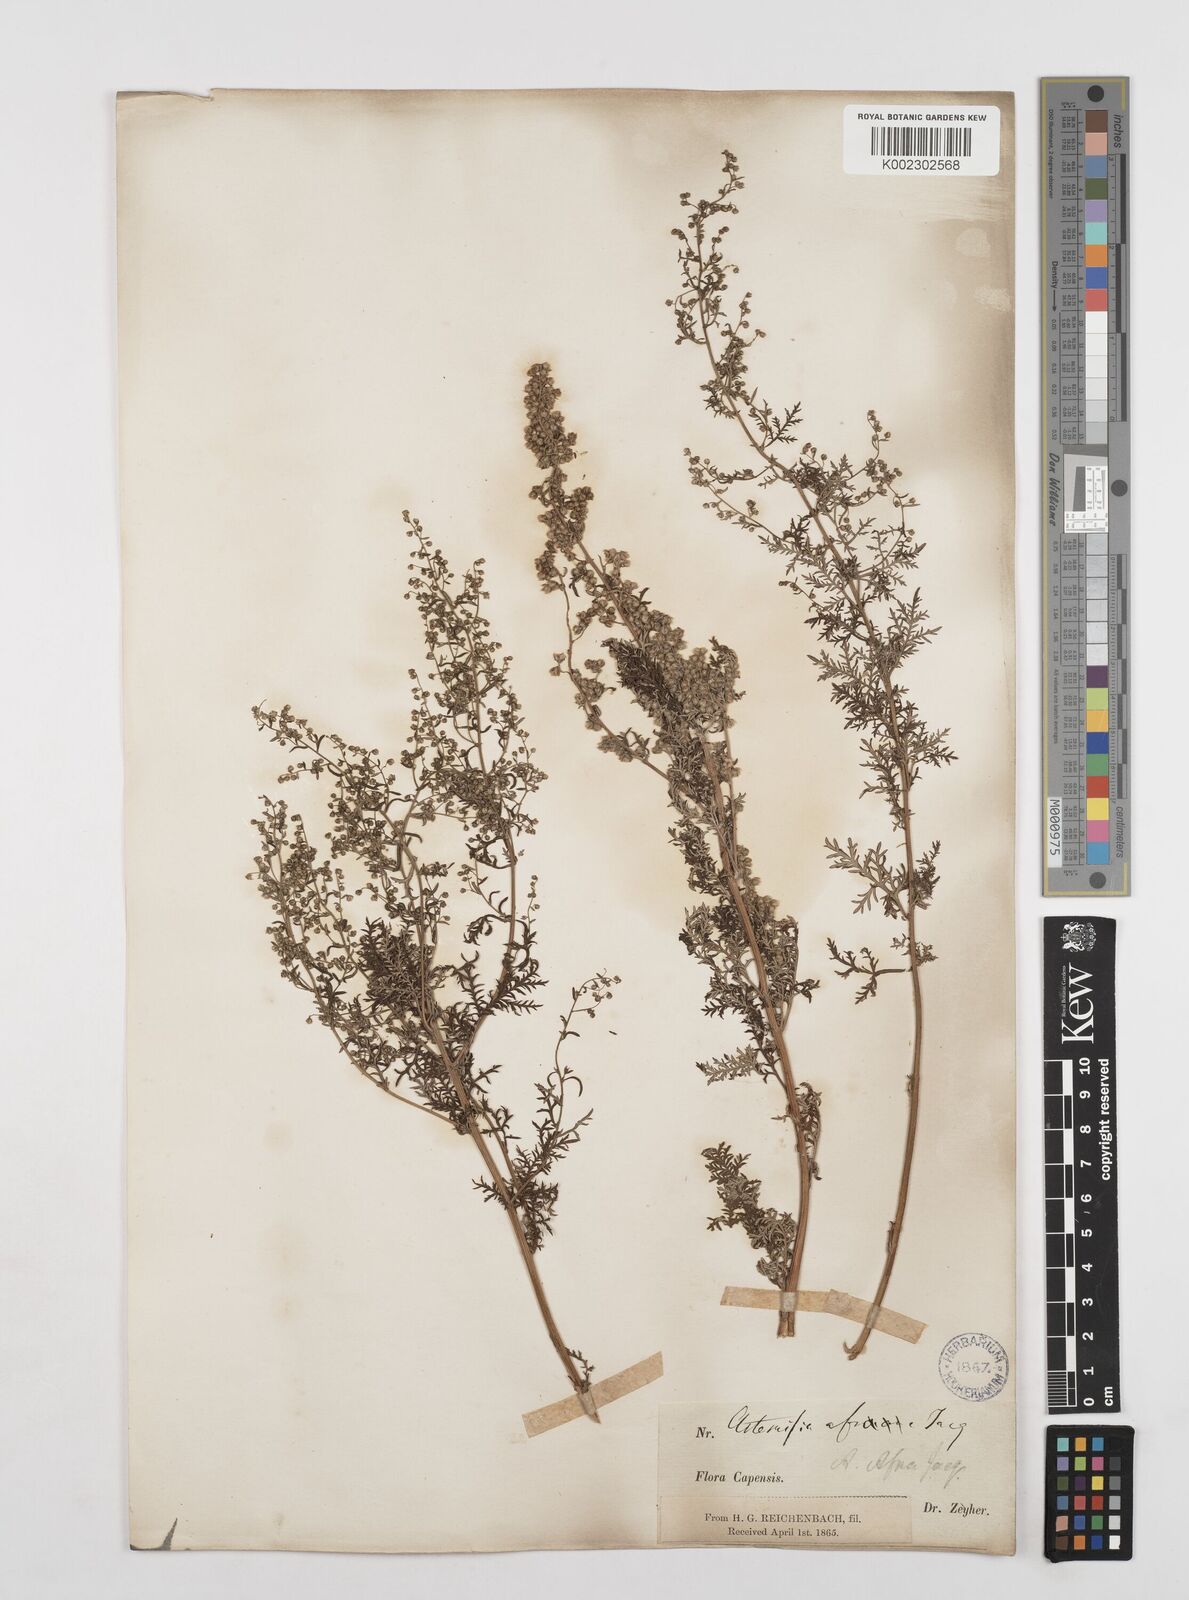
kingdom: Plantae
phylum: Tracheophyta
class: Magnoliopsida
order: Asterales
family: Asteraceae
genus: Artemisia
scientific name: Artemisia afra
